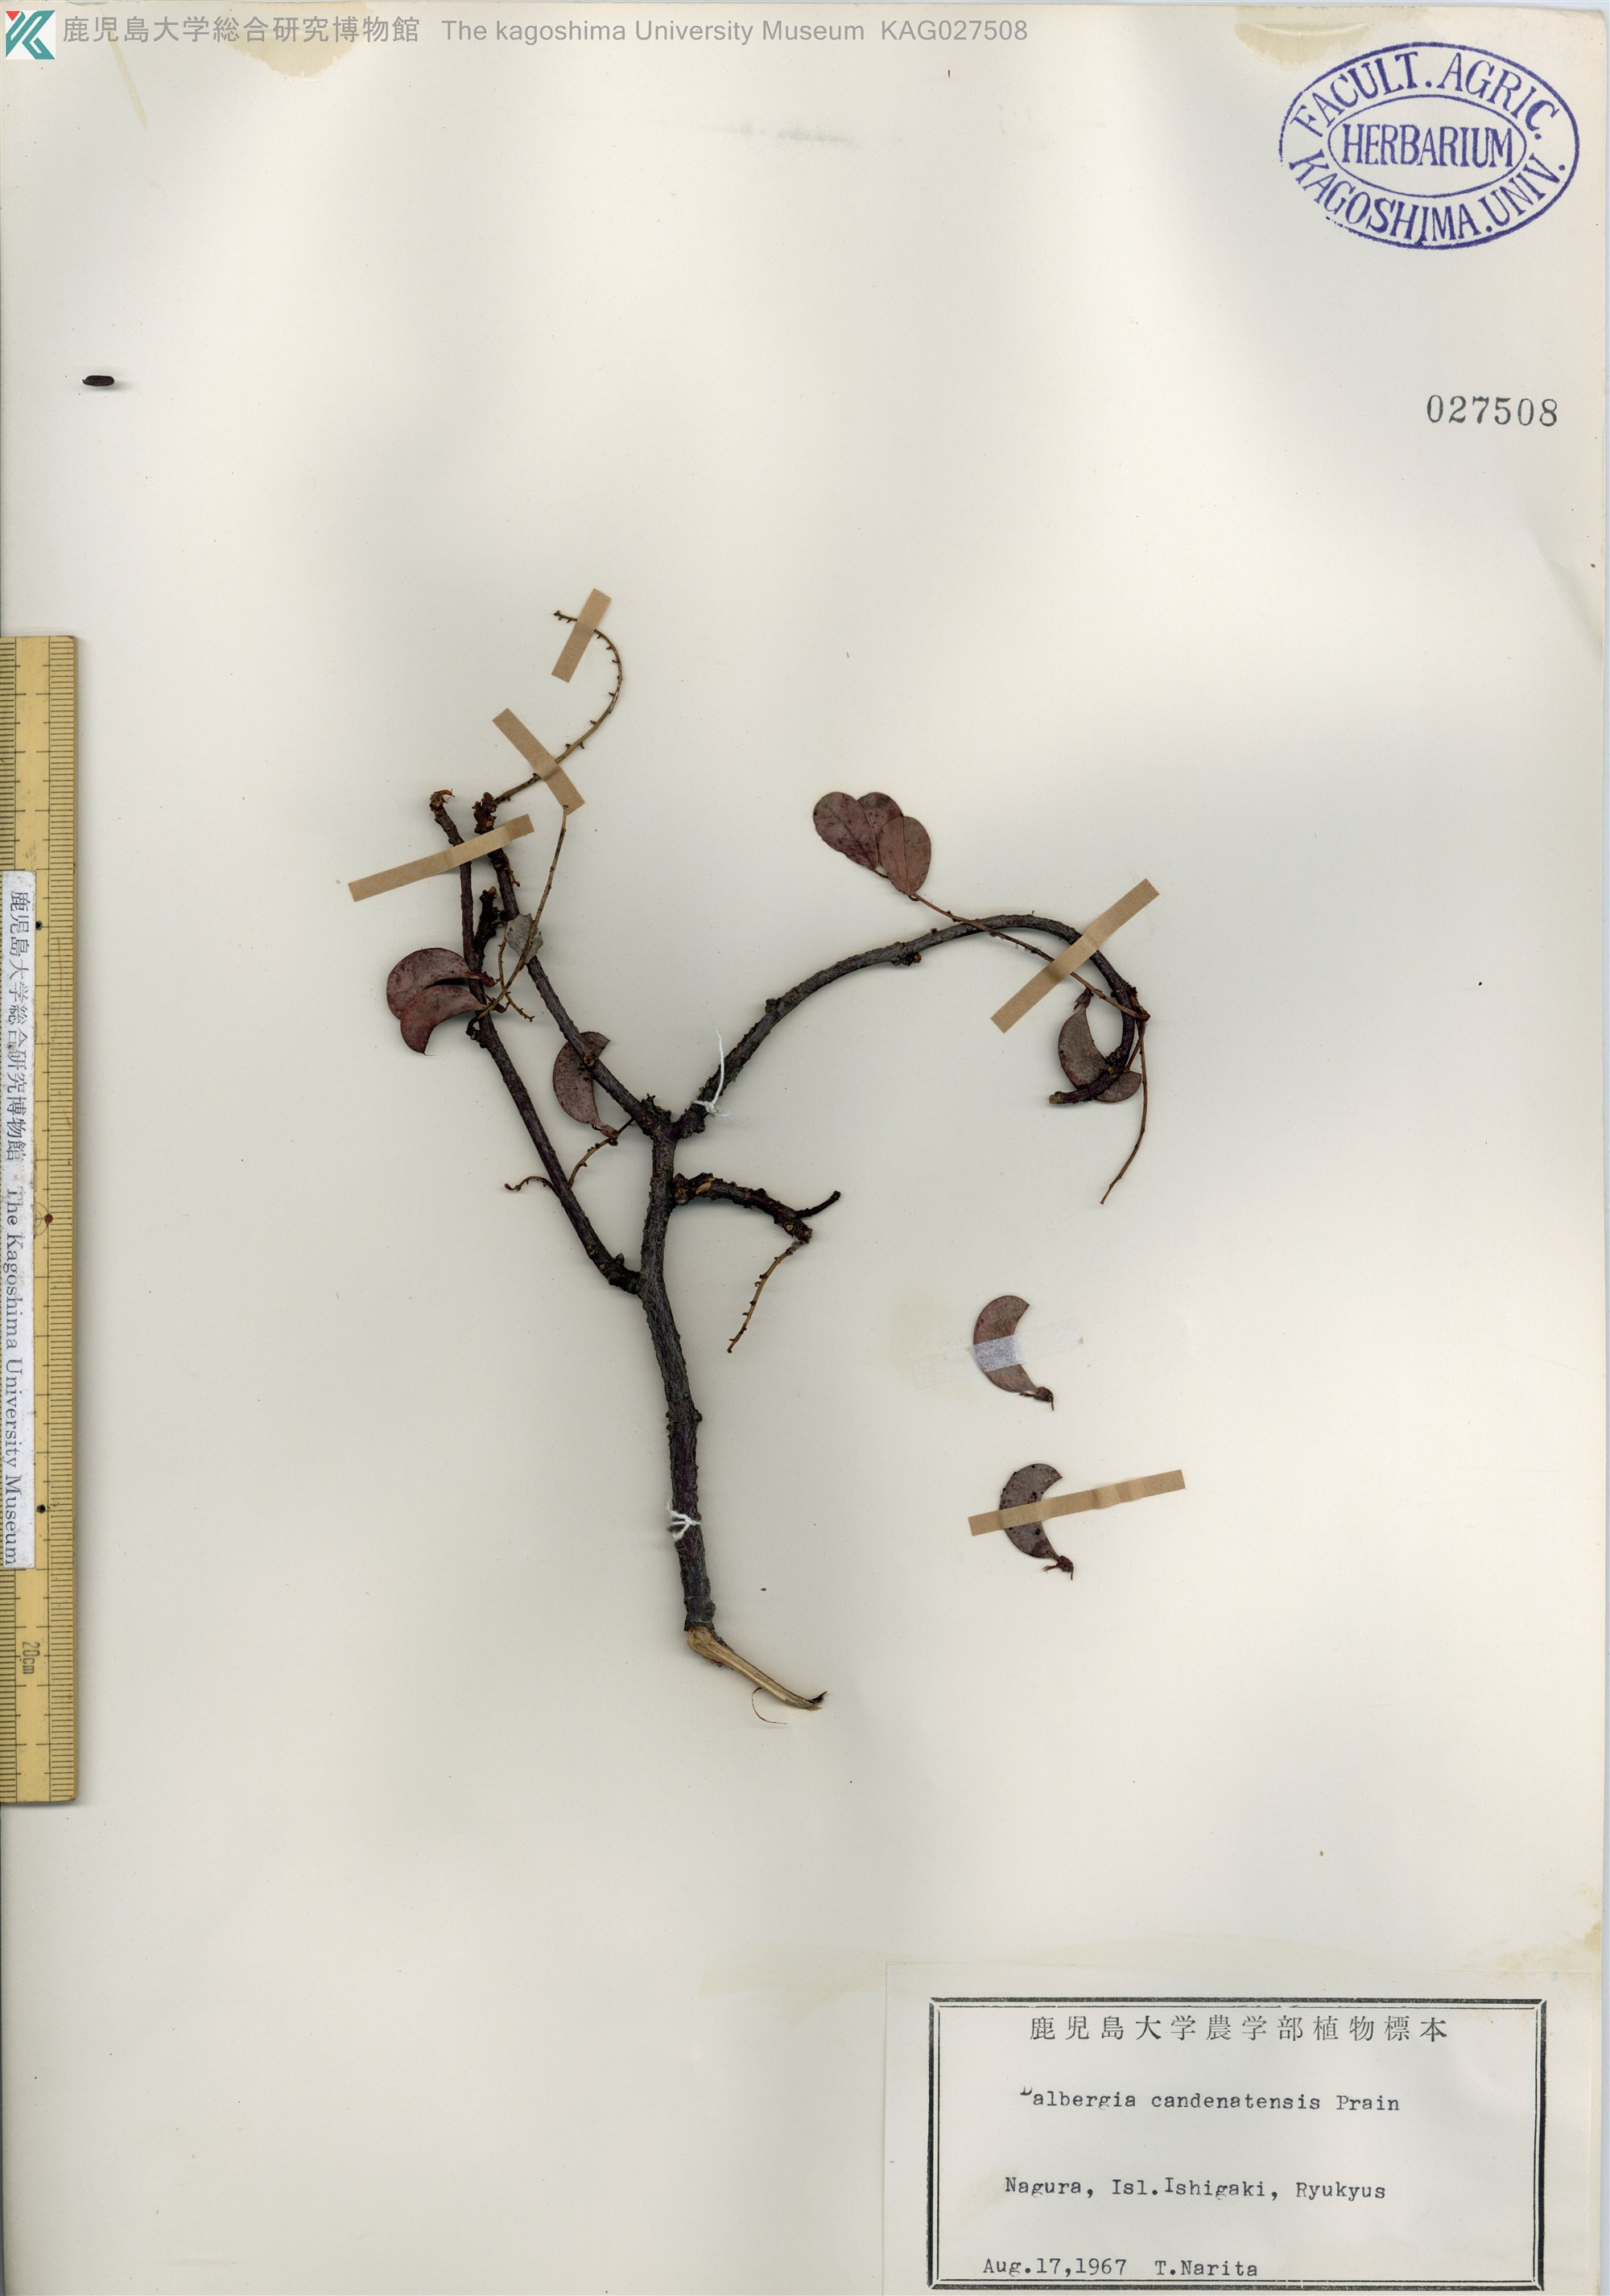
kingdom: Plantae
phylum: Tracheophyta
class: Magnoliopsida
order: Fabales
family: Fabaceae
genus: Dalbergia
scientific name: Dalbergia candenatensis
